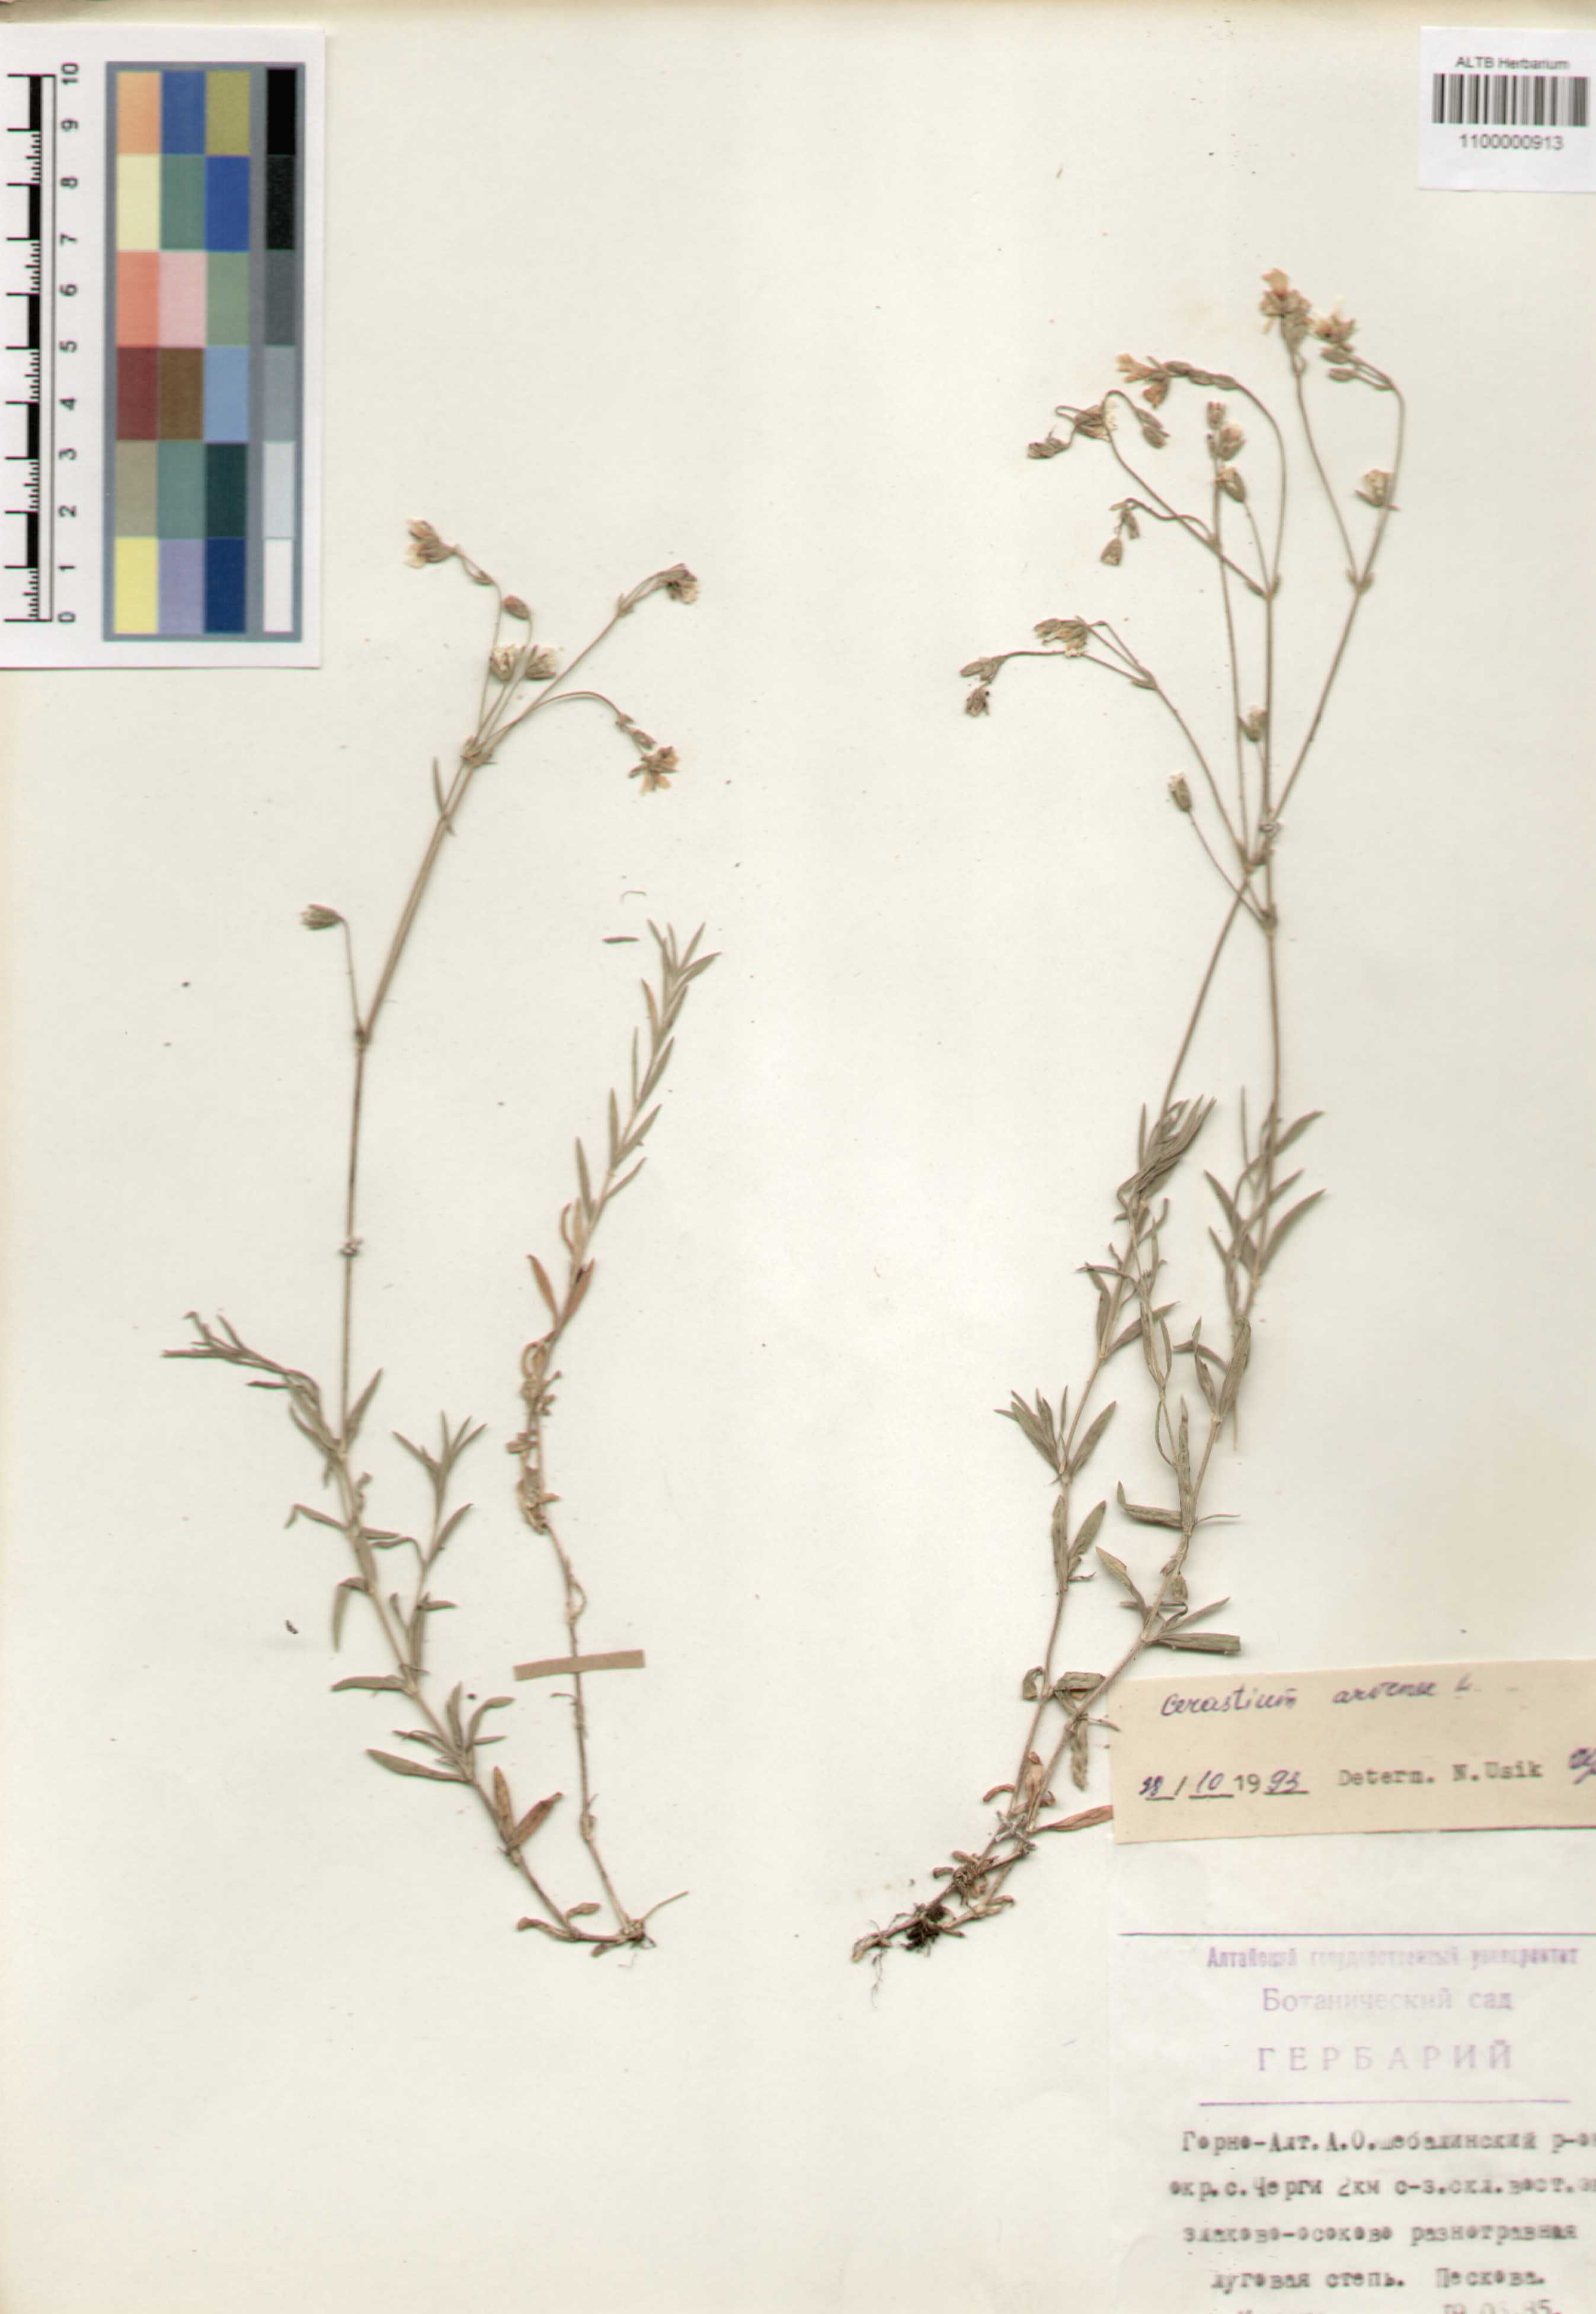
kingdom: Plantae
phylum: Tracheophyta
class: Magnoliopsida
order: Caryophyllales
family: Caryophyllaceae
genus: Cerastium
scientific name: Cerastium arvense
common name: Field mouse-ear
